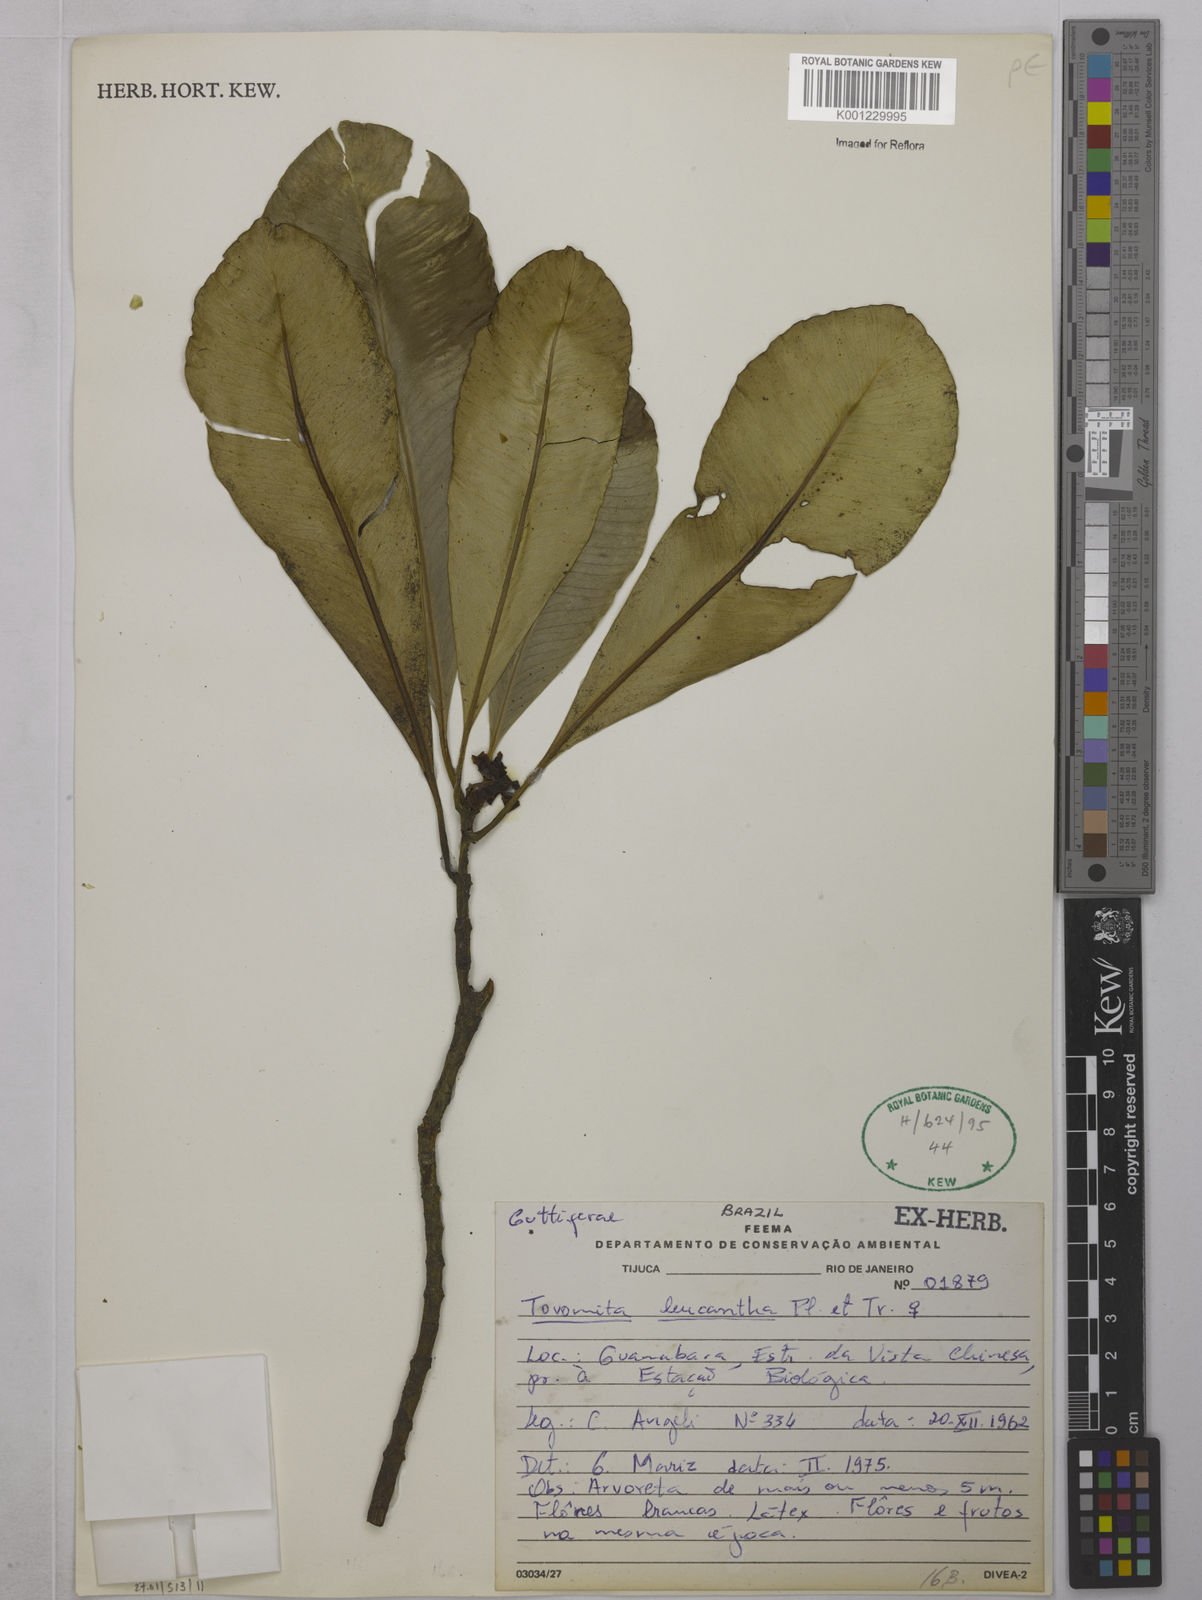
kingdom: Plantae
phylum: Tracheophyta
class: Magnoliopsida
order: Malpighiales
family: Clusiaceae
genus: Tovomita
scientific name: Tovomita leucantha
